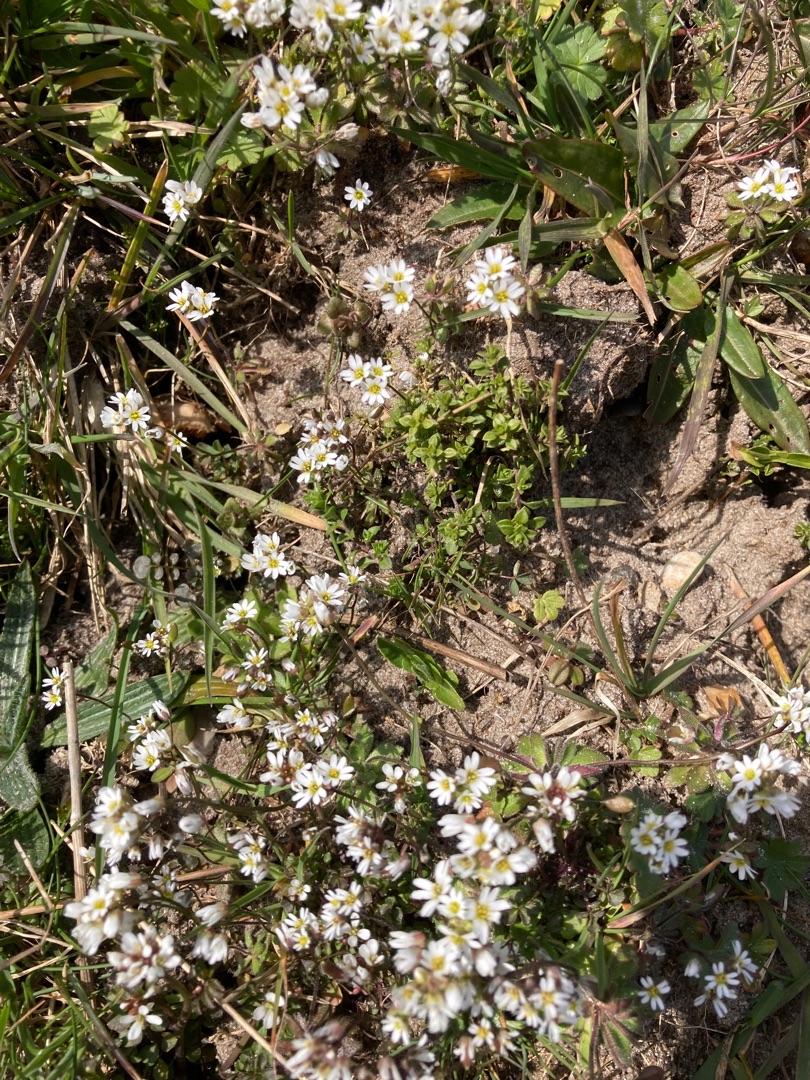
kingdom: Plantae
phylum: Tracheophyta
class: Magnoliopsida
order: Brassicales
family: Brassicaceae
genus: Draba
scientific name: Draba verna
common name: Vår-gæslingeblomst
